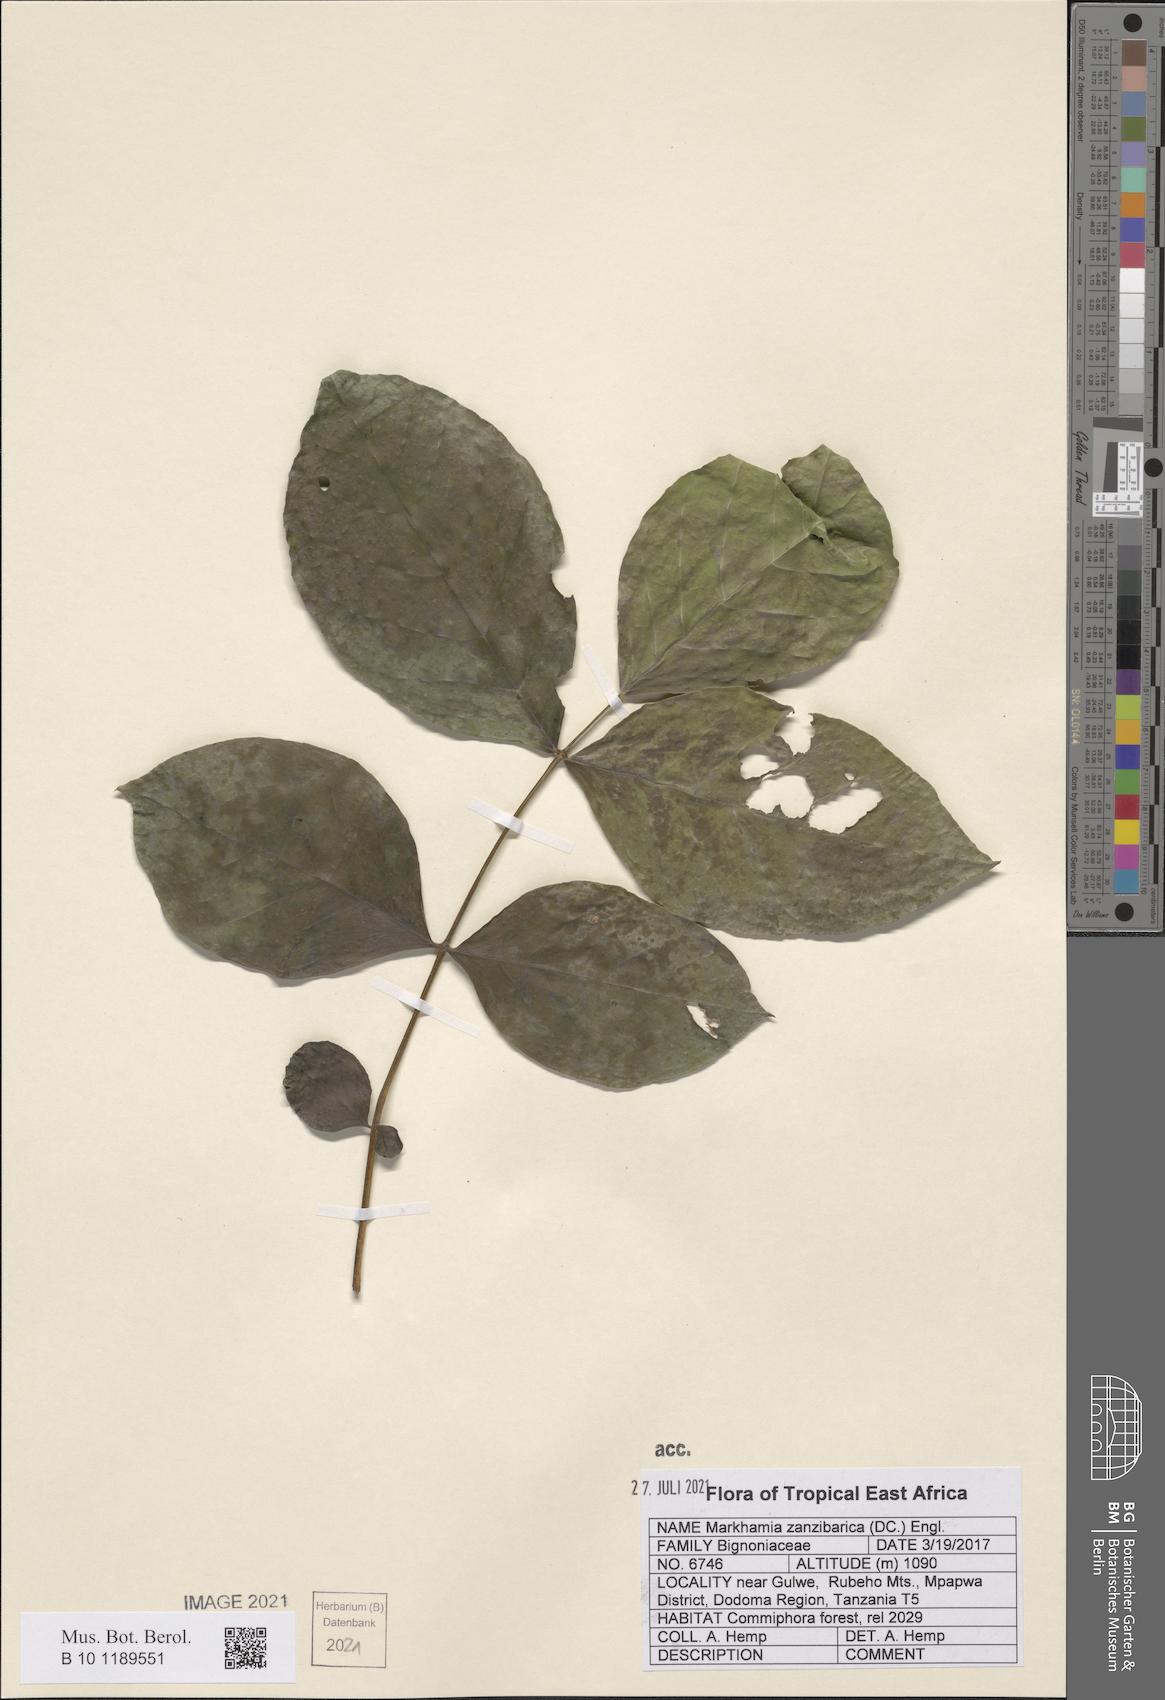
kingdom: Plantae
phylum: Tracheophyta
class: Magnoliopsida
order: Lamiales
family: Bignoniaceae
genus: Markhamia
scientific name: Markhamia zanzibarica
